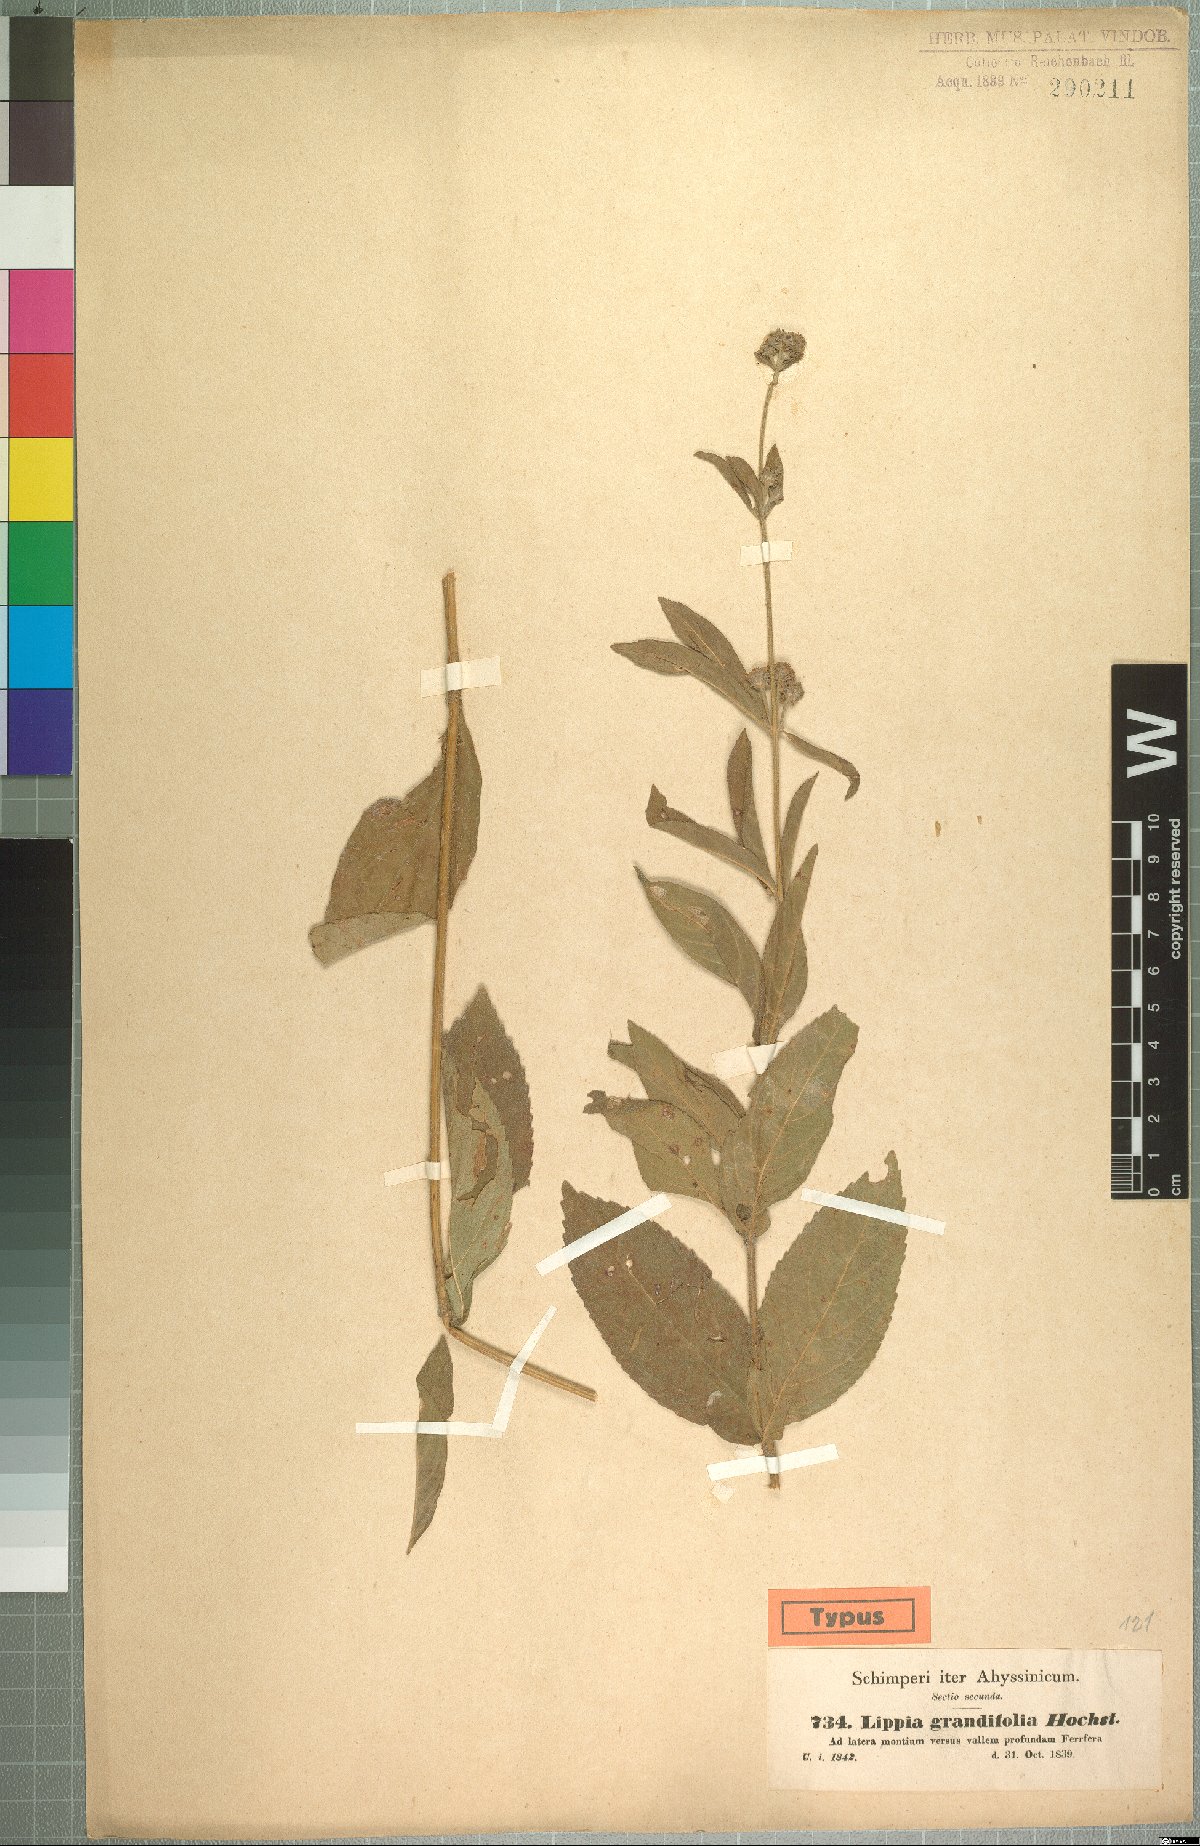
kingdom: Plantae
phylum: Tracheophyta
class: Magnoliopsida
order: Lamiales
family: Verbenaceae
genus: Lippia
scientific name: Lippia abyssinica
